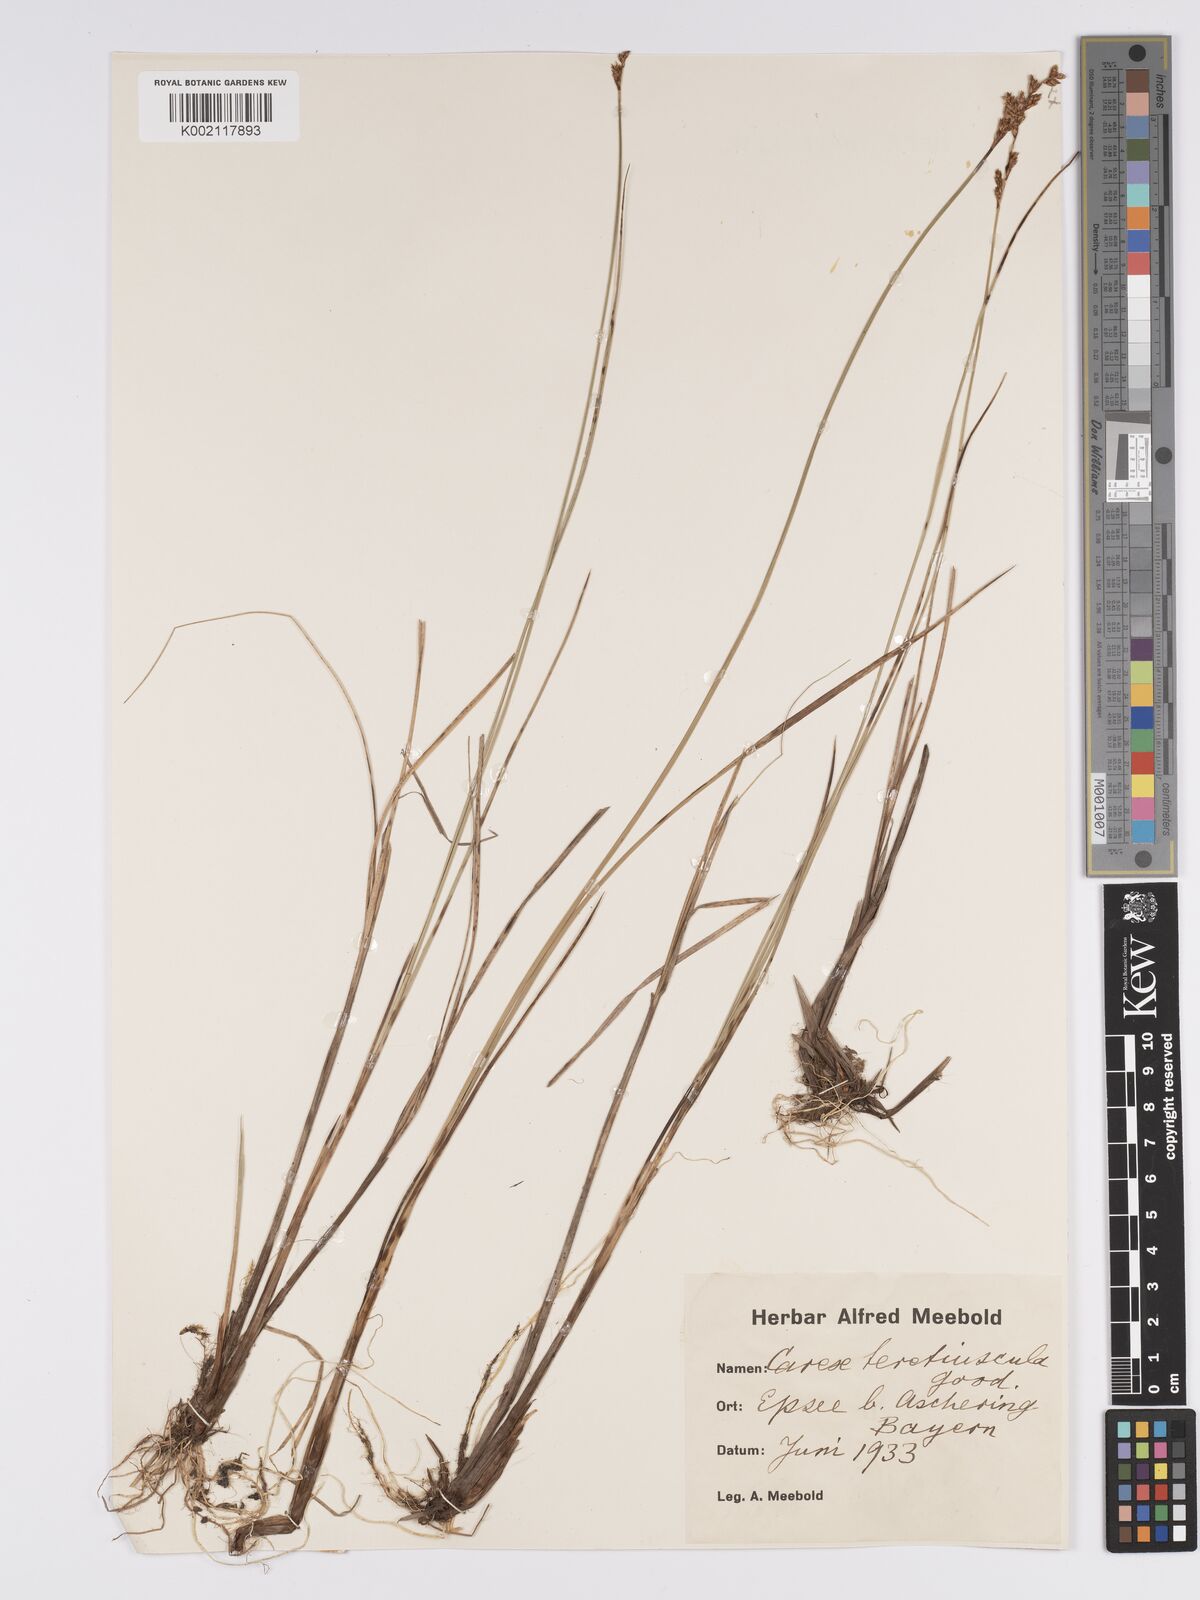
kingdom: Plantae
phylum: Tracheophyta
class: Liliopsida
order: Poales
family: Cyperaceae
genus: Carex
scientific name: Carex diandra
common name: Lesser tussock-sedge
